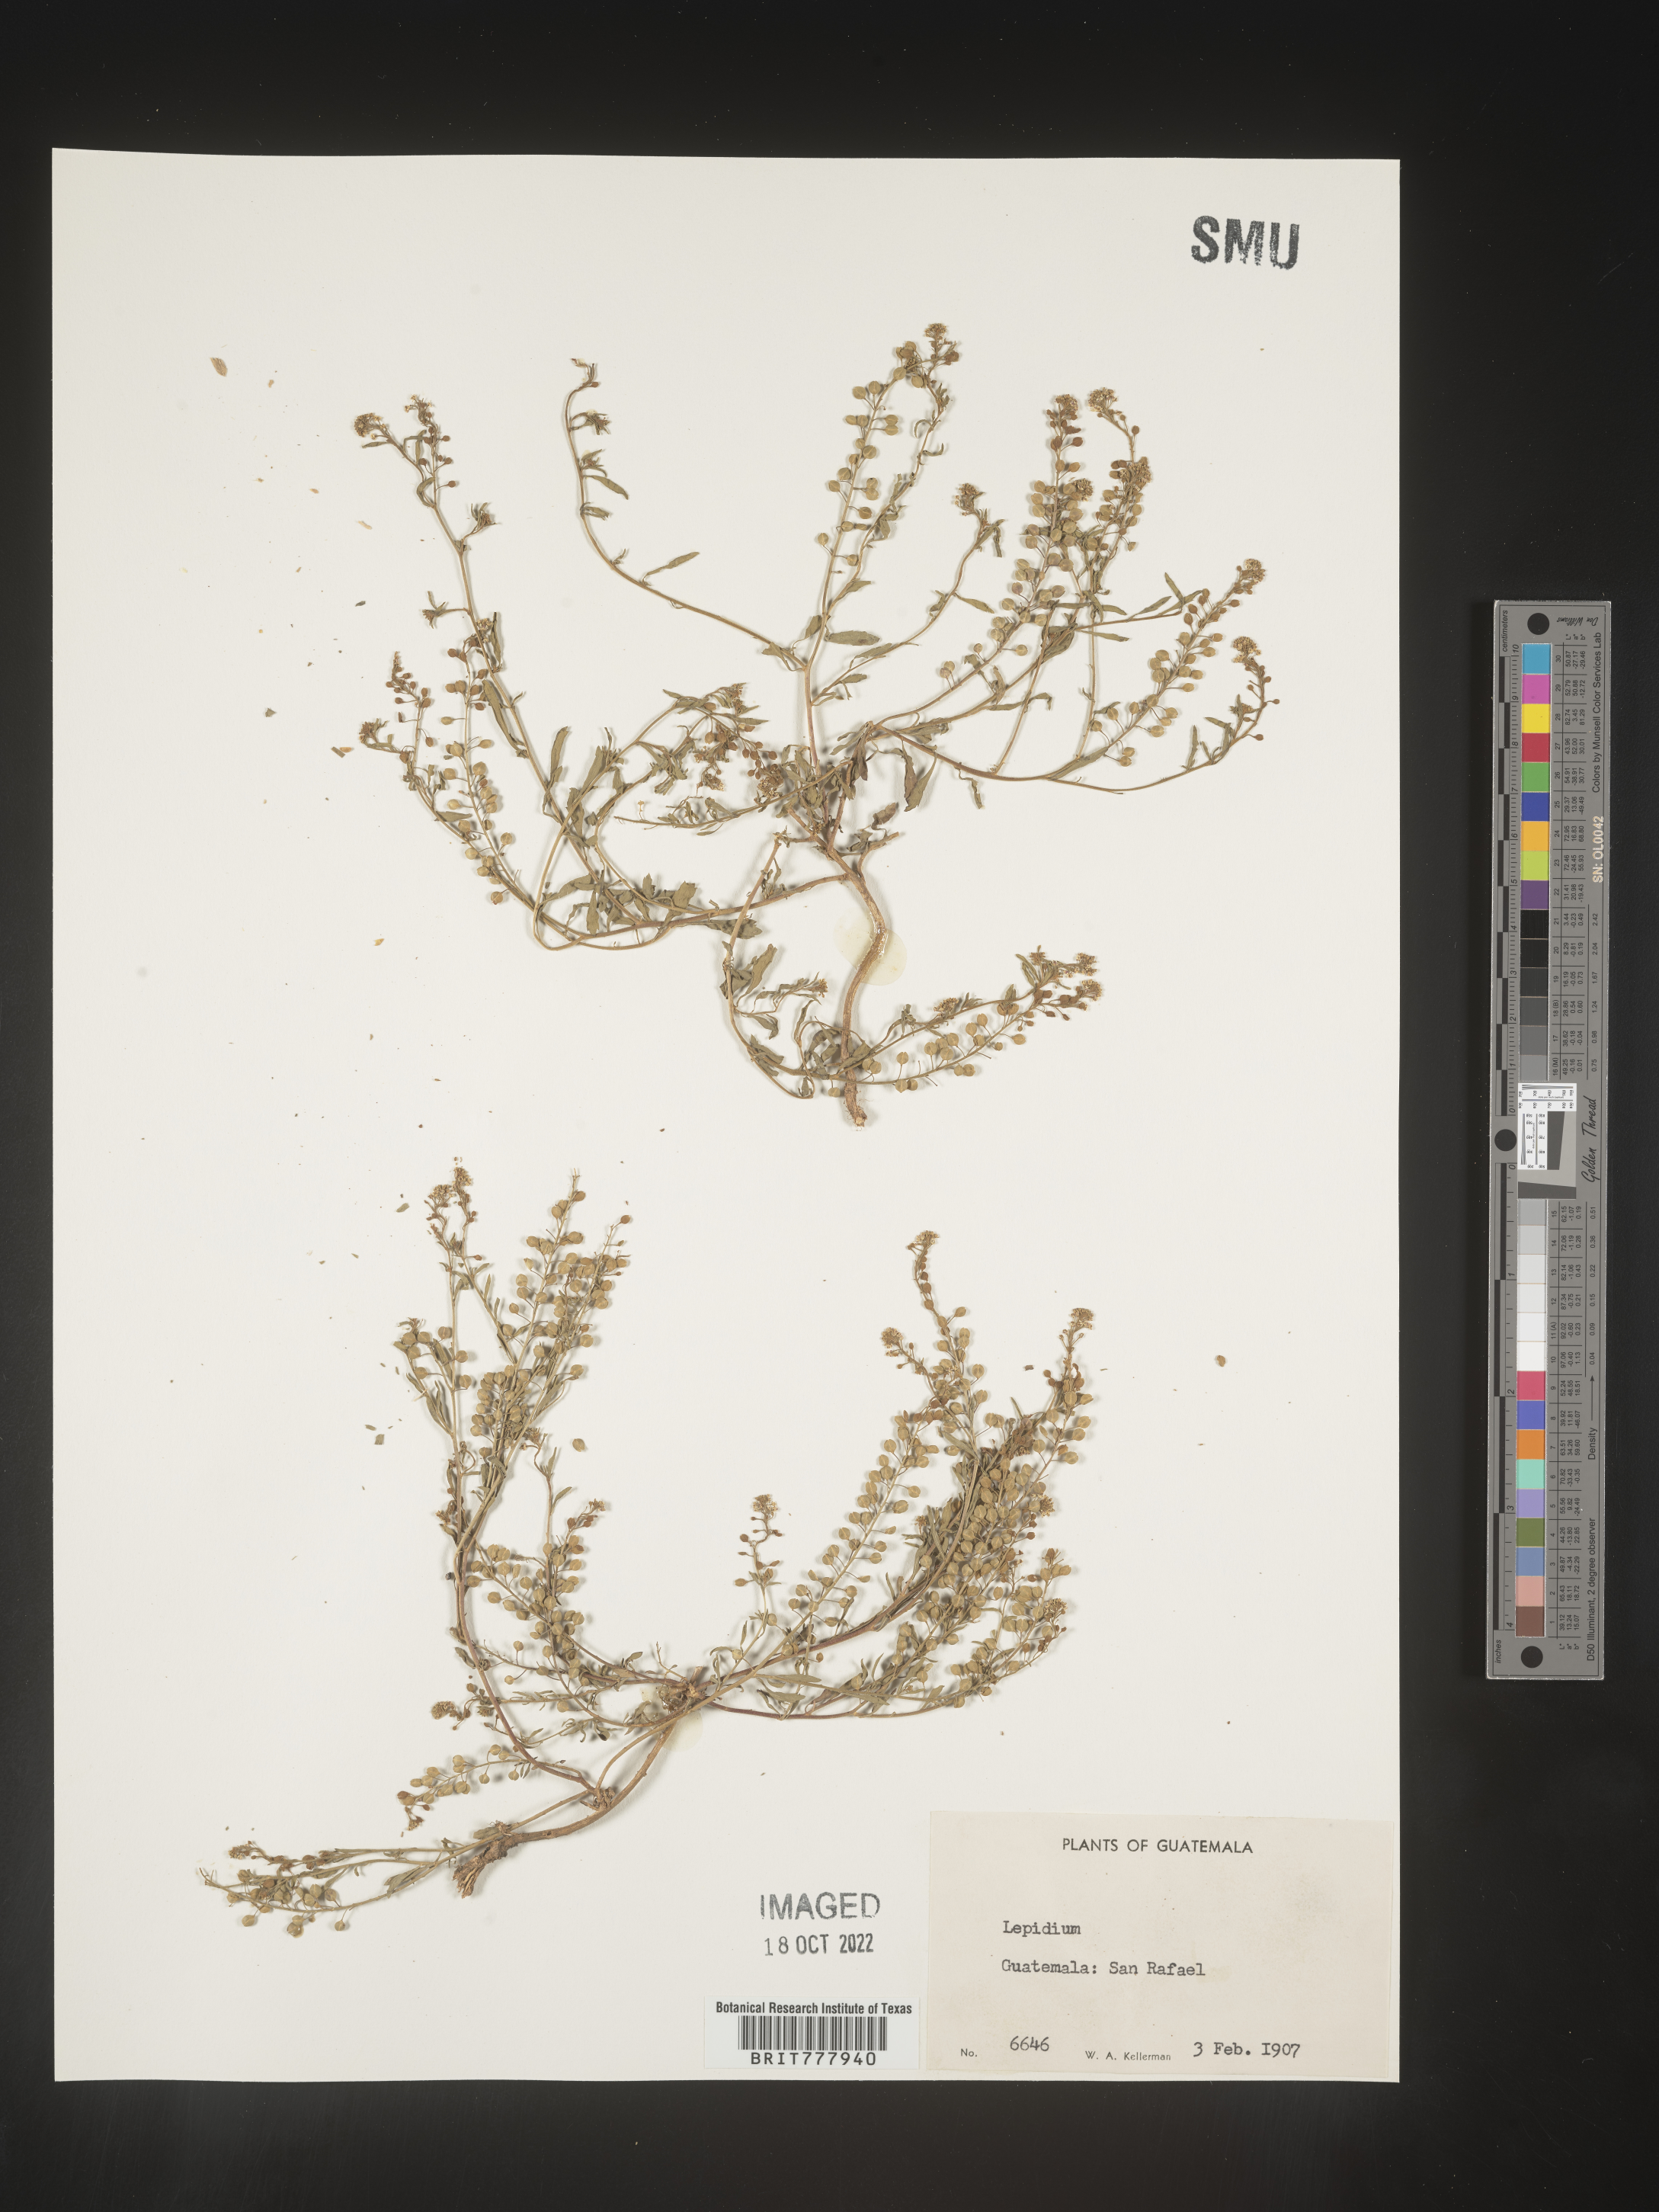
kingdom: Plantae
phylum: Tracheophyta
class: Magnoliopsida
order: Brassicales
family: Brassicaceae
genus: Lepidium
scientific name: Lepidium
